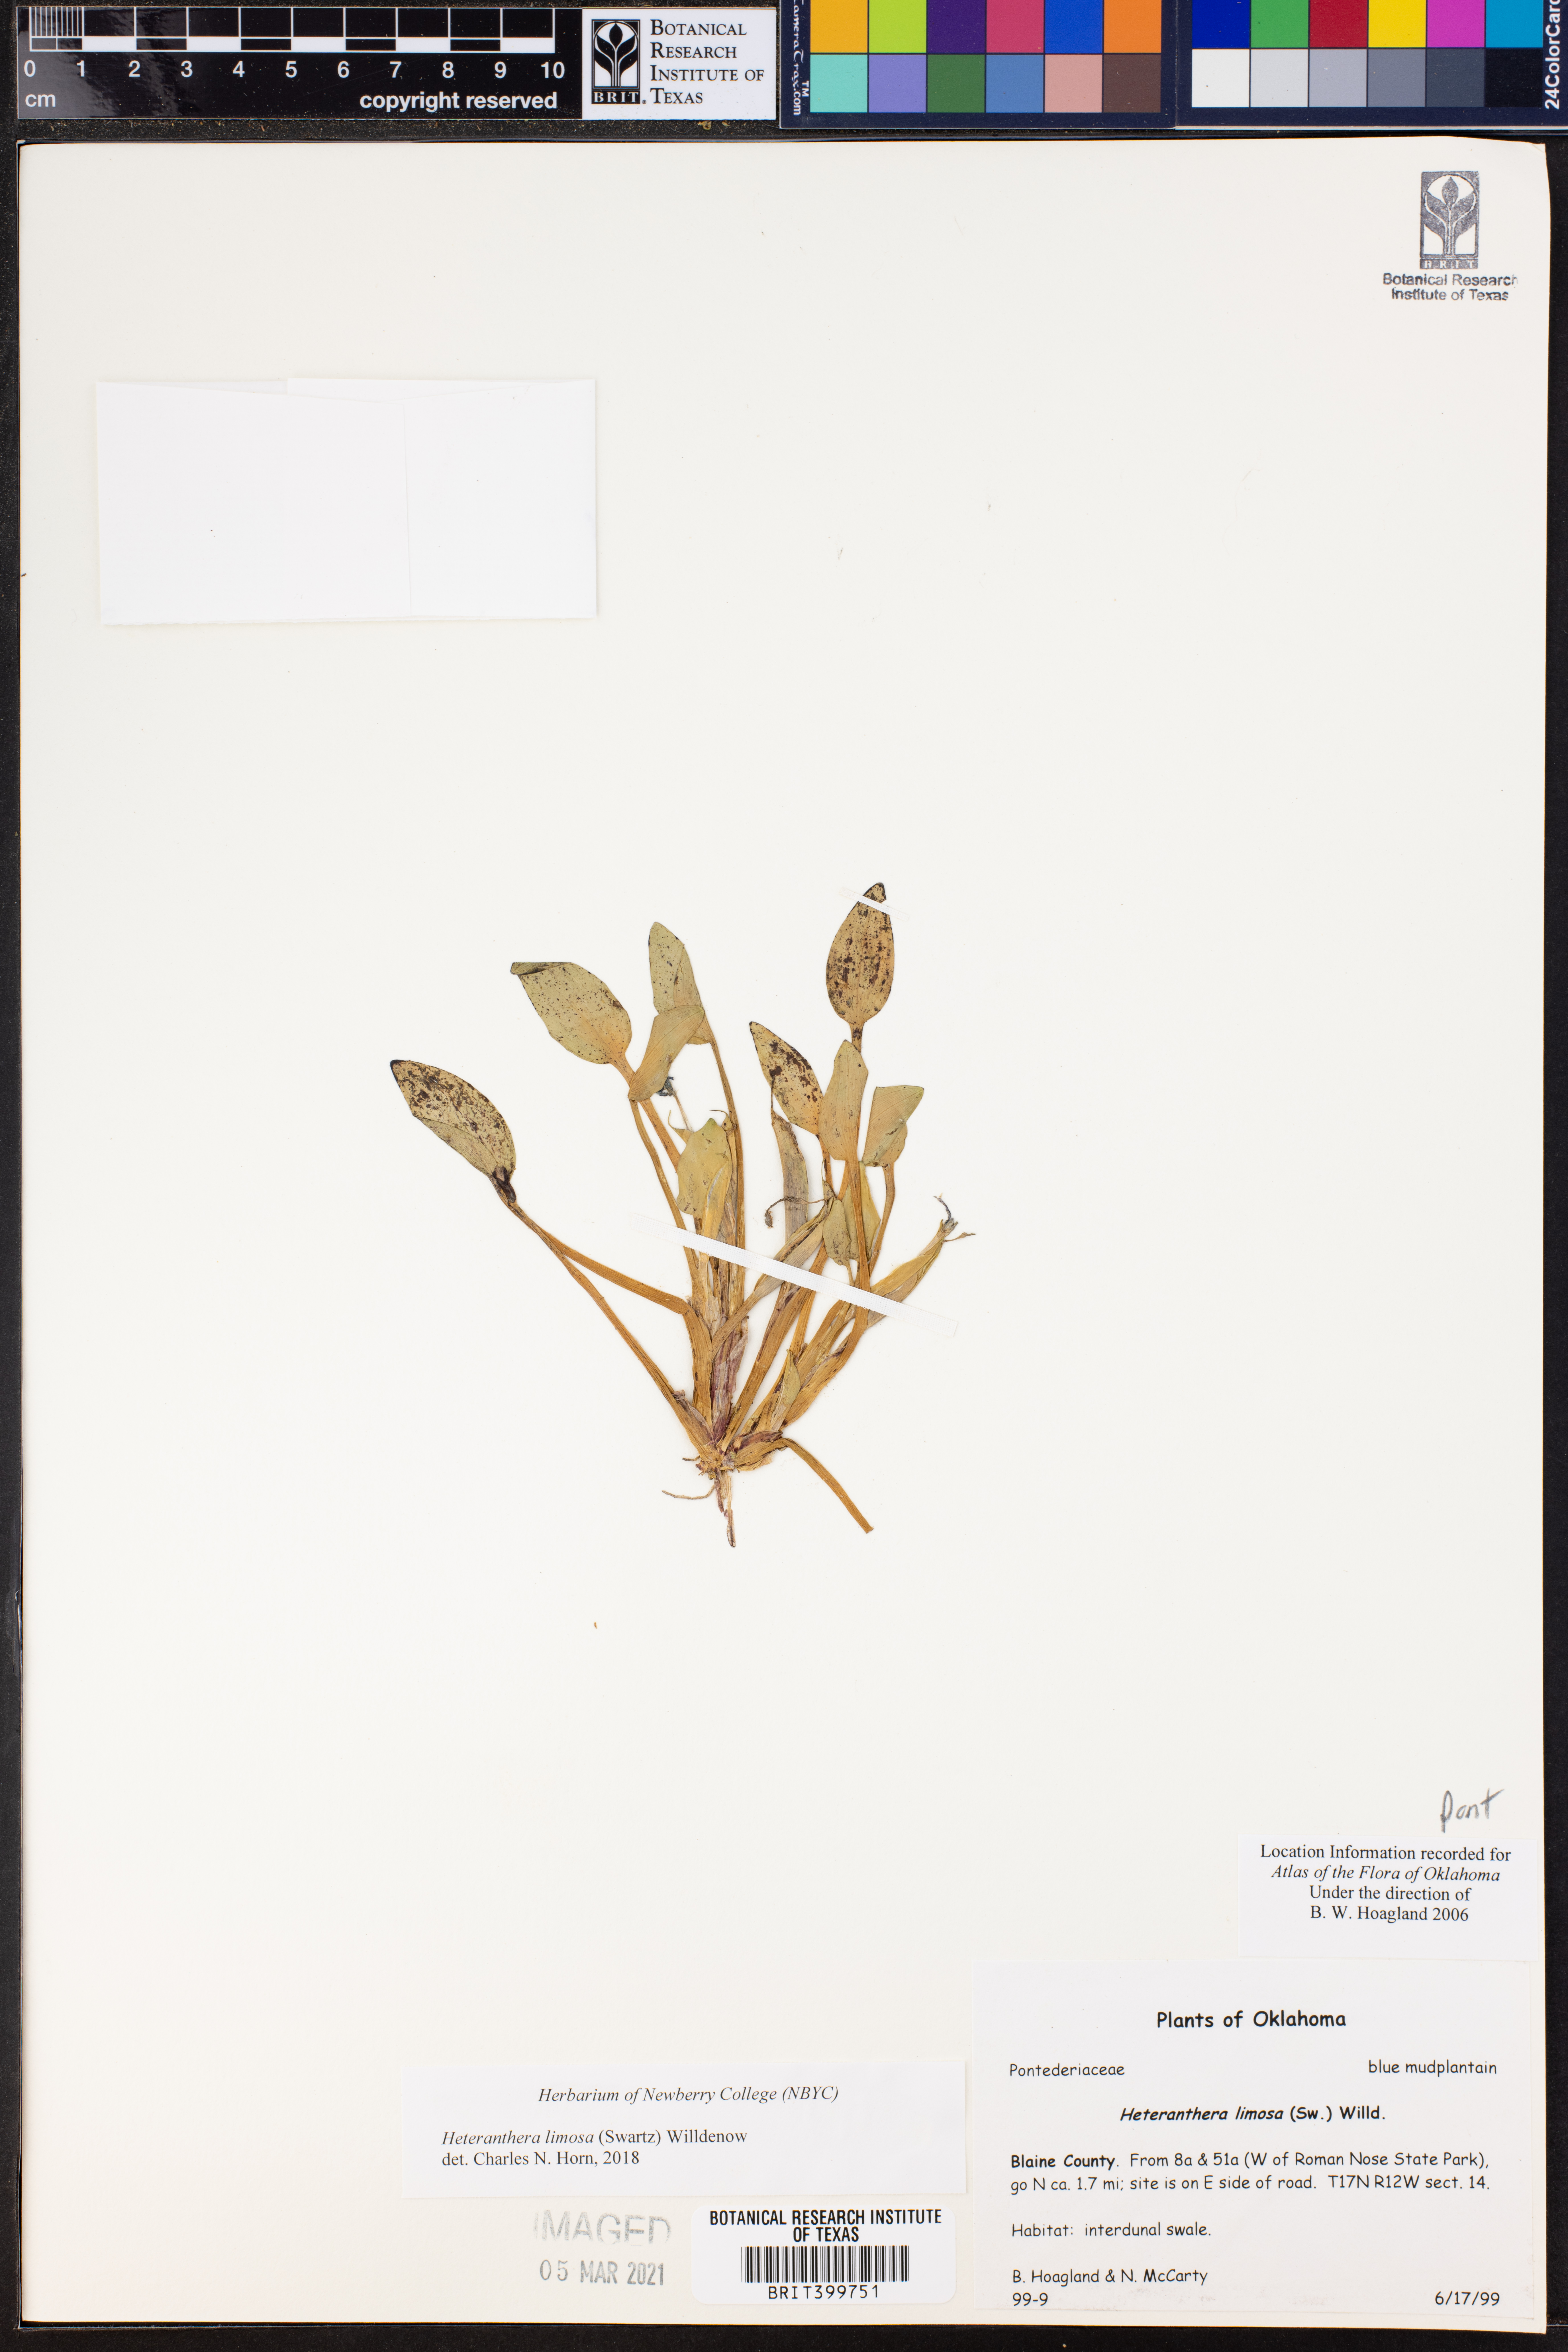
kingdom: Plantae
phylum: Tracheophyta
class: Liliopsida
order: Commelinales
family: Pontederiaceae
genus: Heteranthera
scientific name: Heteranthera limosa
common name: Blue mud-plantain
